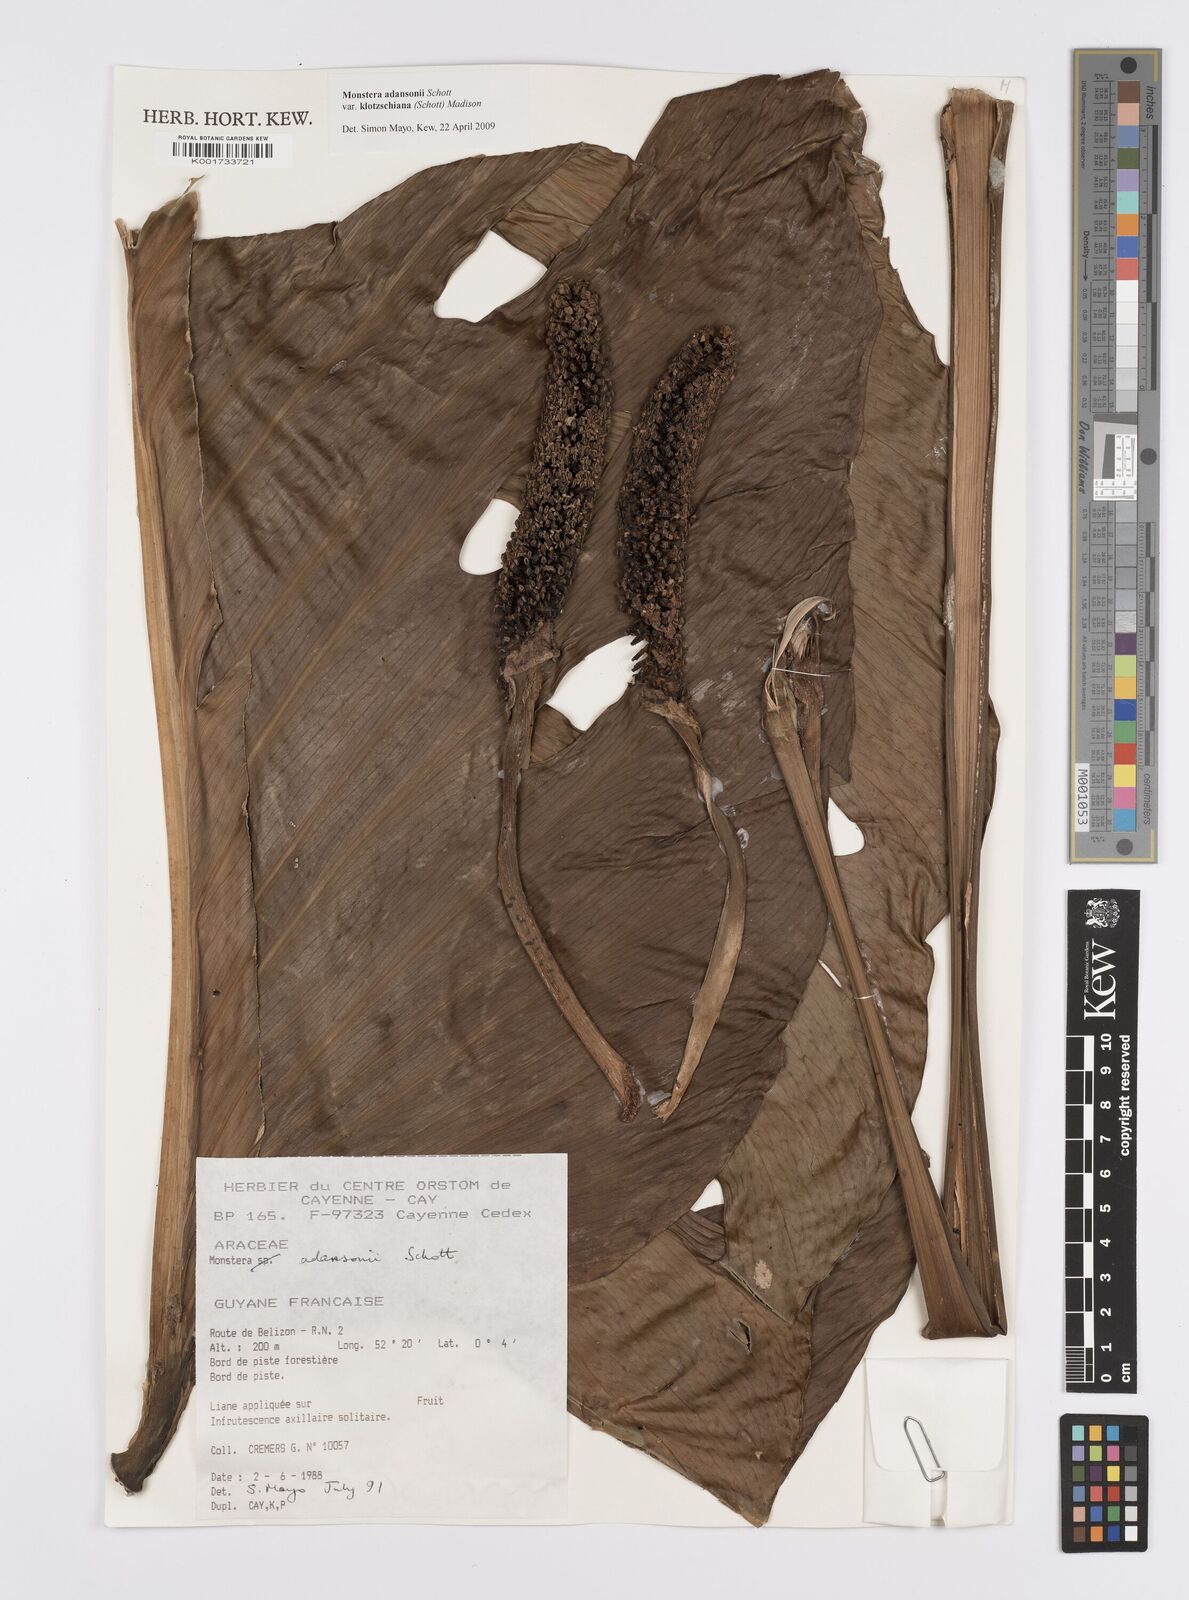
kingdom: Plantae
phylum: Tracheophyta
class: Liliopsida
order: Alismatales
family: Araceae
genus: Monstera
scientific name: Monstera adansonii
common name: Tarovine
